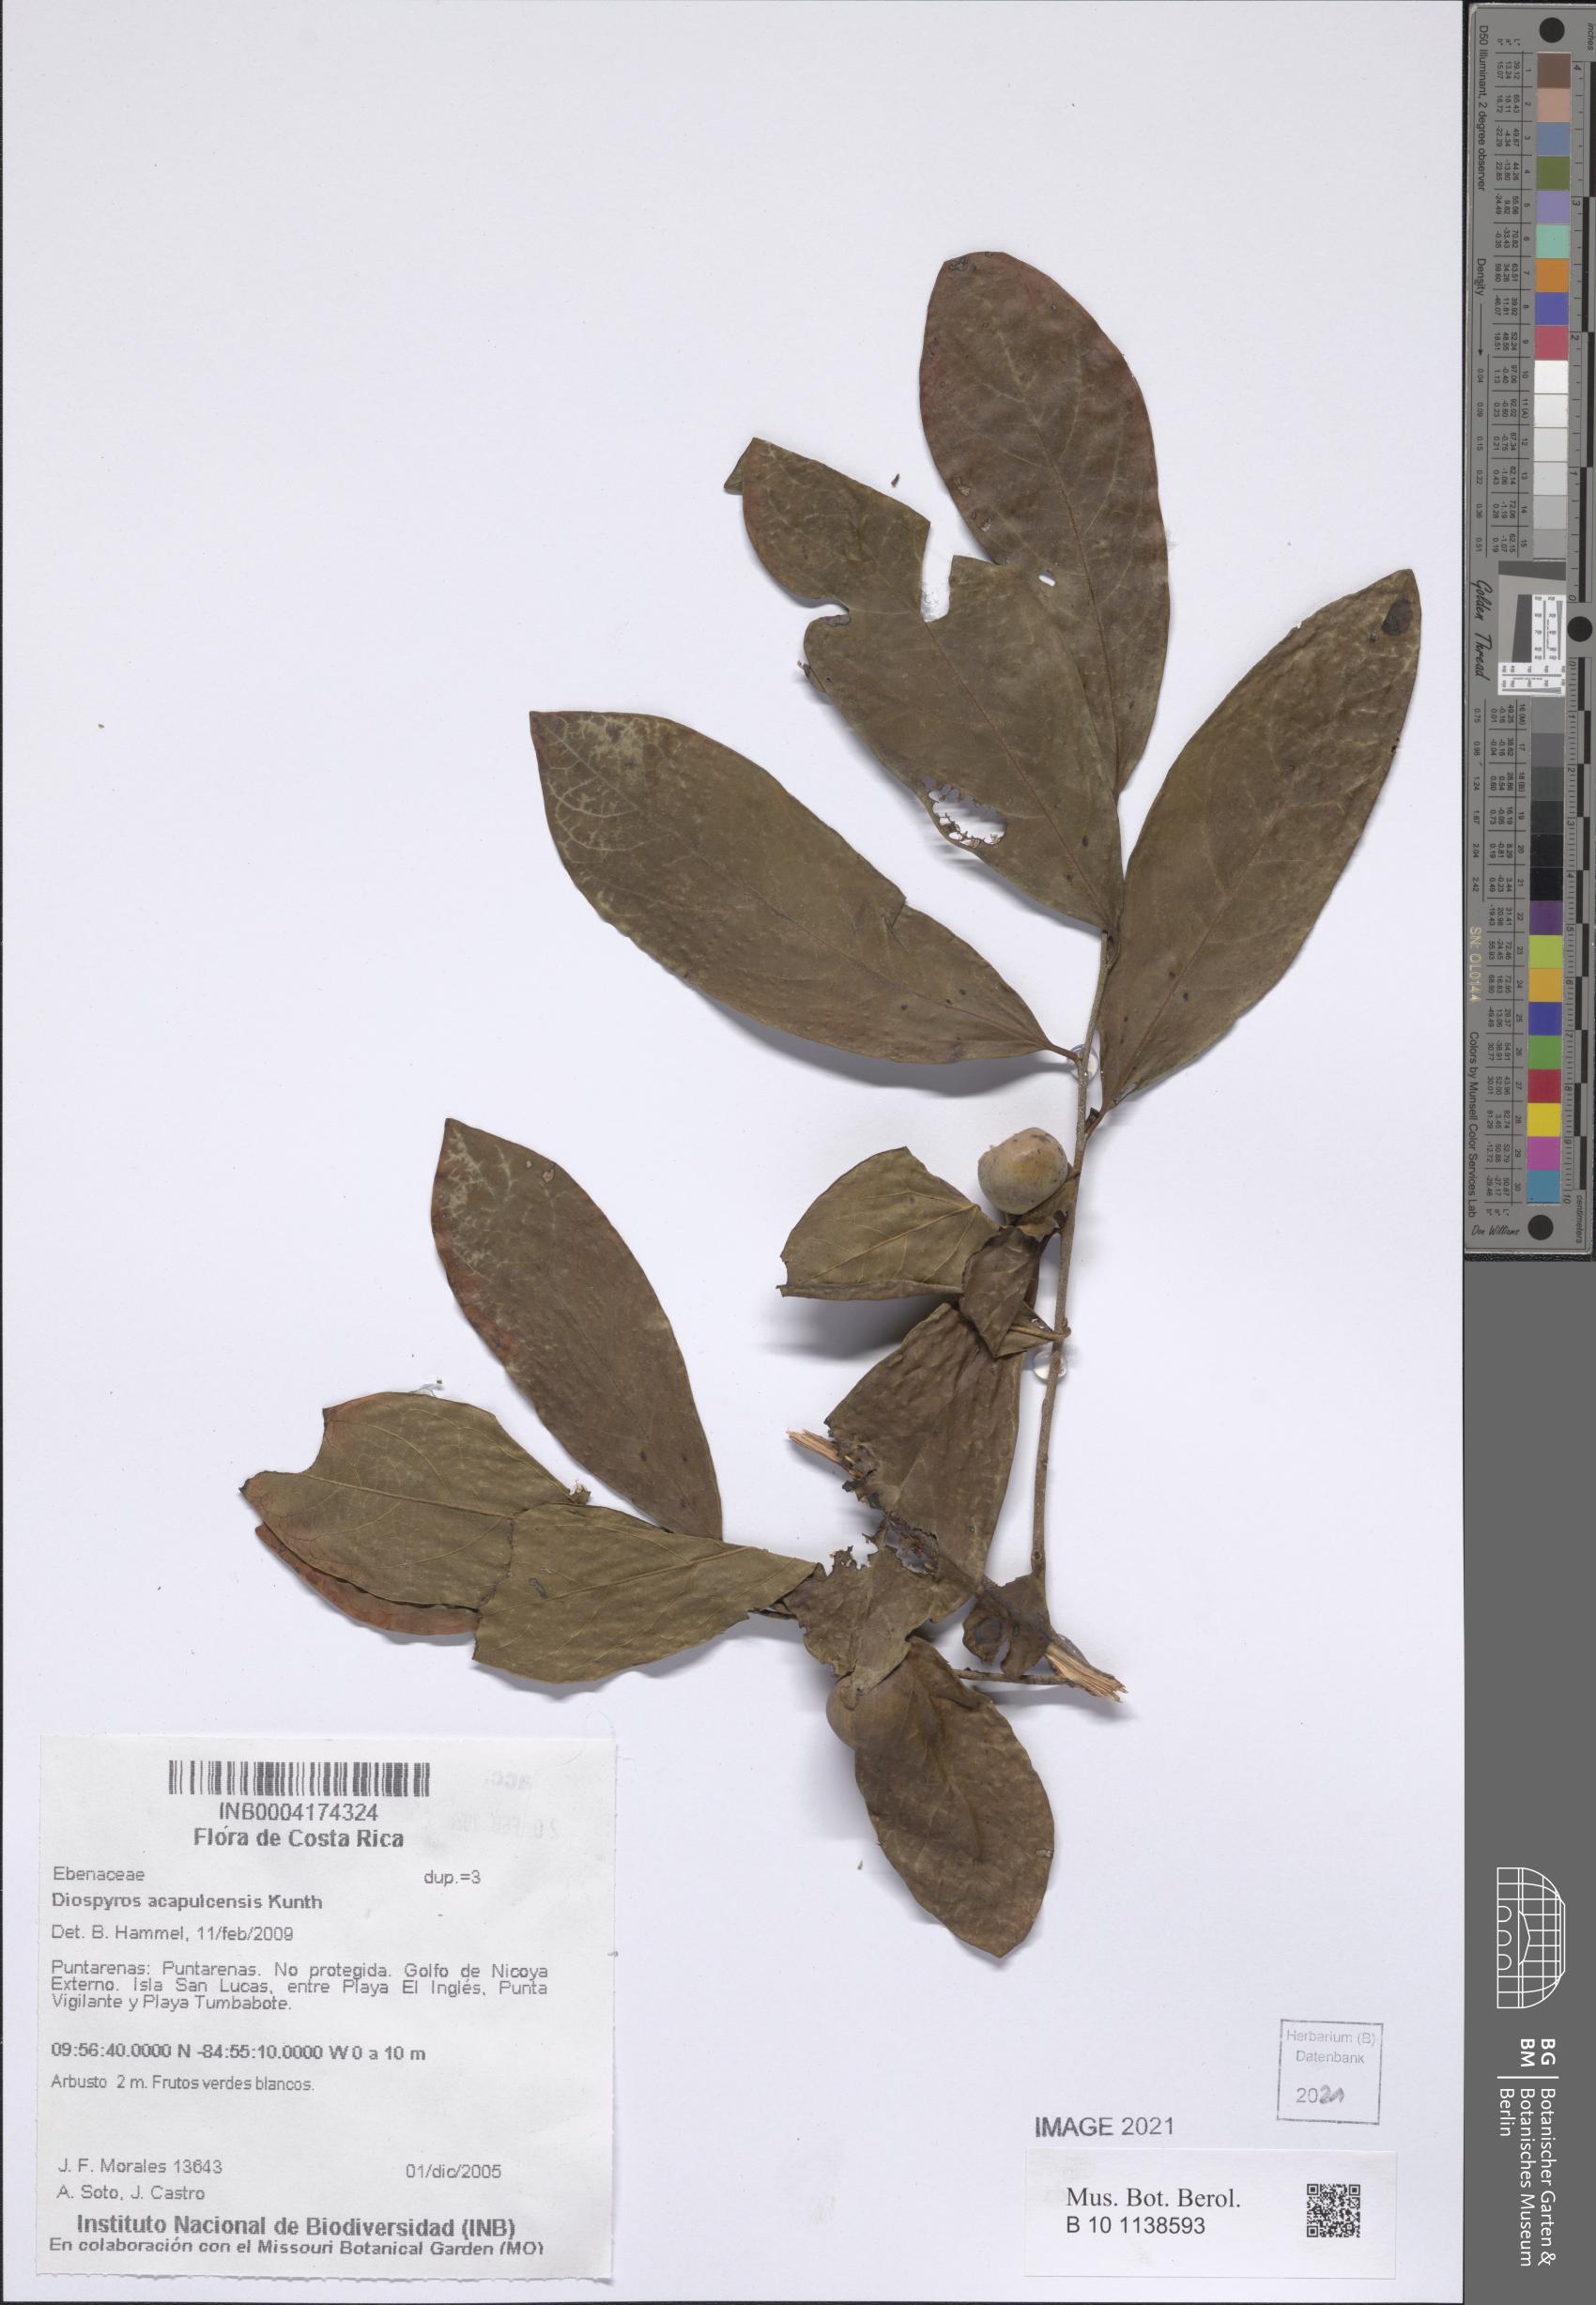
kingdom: Plantae
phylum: Tracheophyta
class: Magnoliopsida
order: Ericales
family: Ebenaceae
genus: Diospyros
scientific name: Diospyros acapulcensis
